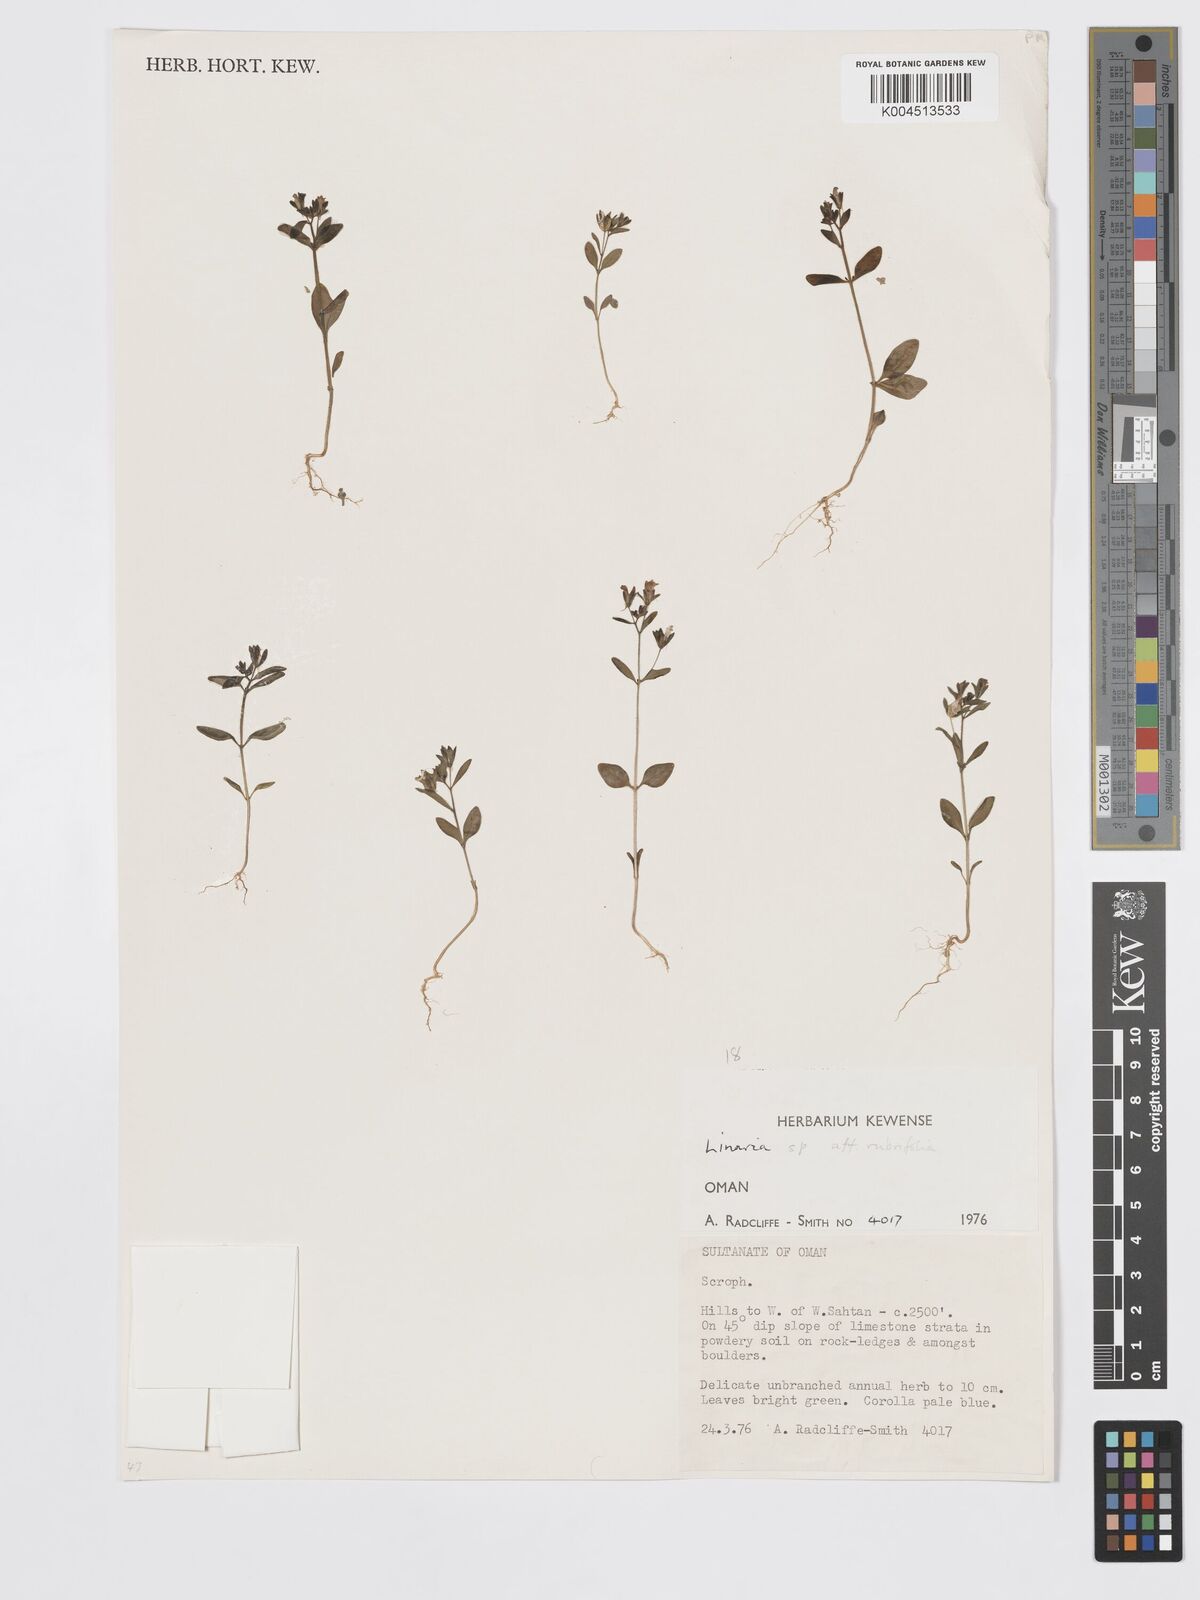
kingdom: Plantae
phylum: Tracheophyta
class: Magnoliopsida
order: Lamiales
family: Plantaginaceae
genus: Chaenorhinum
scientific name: Chaenorhinum rubrifolium
